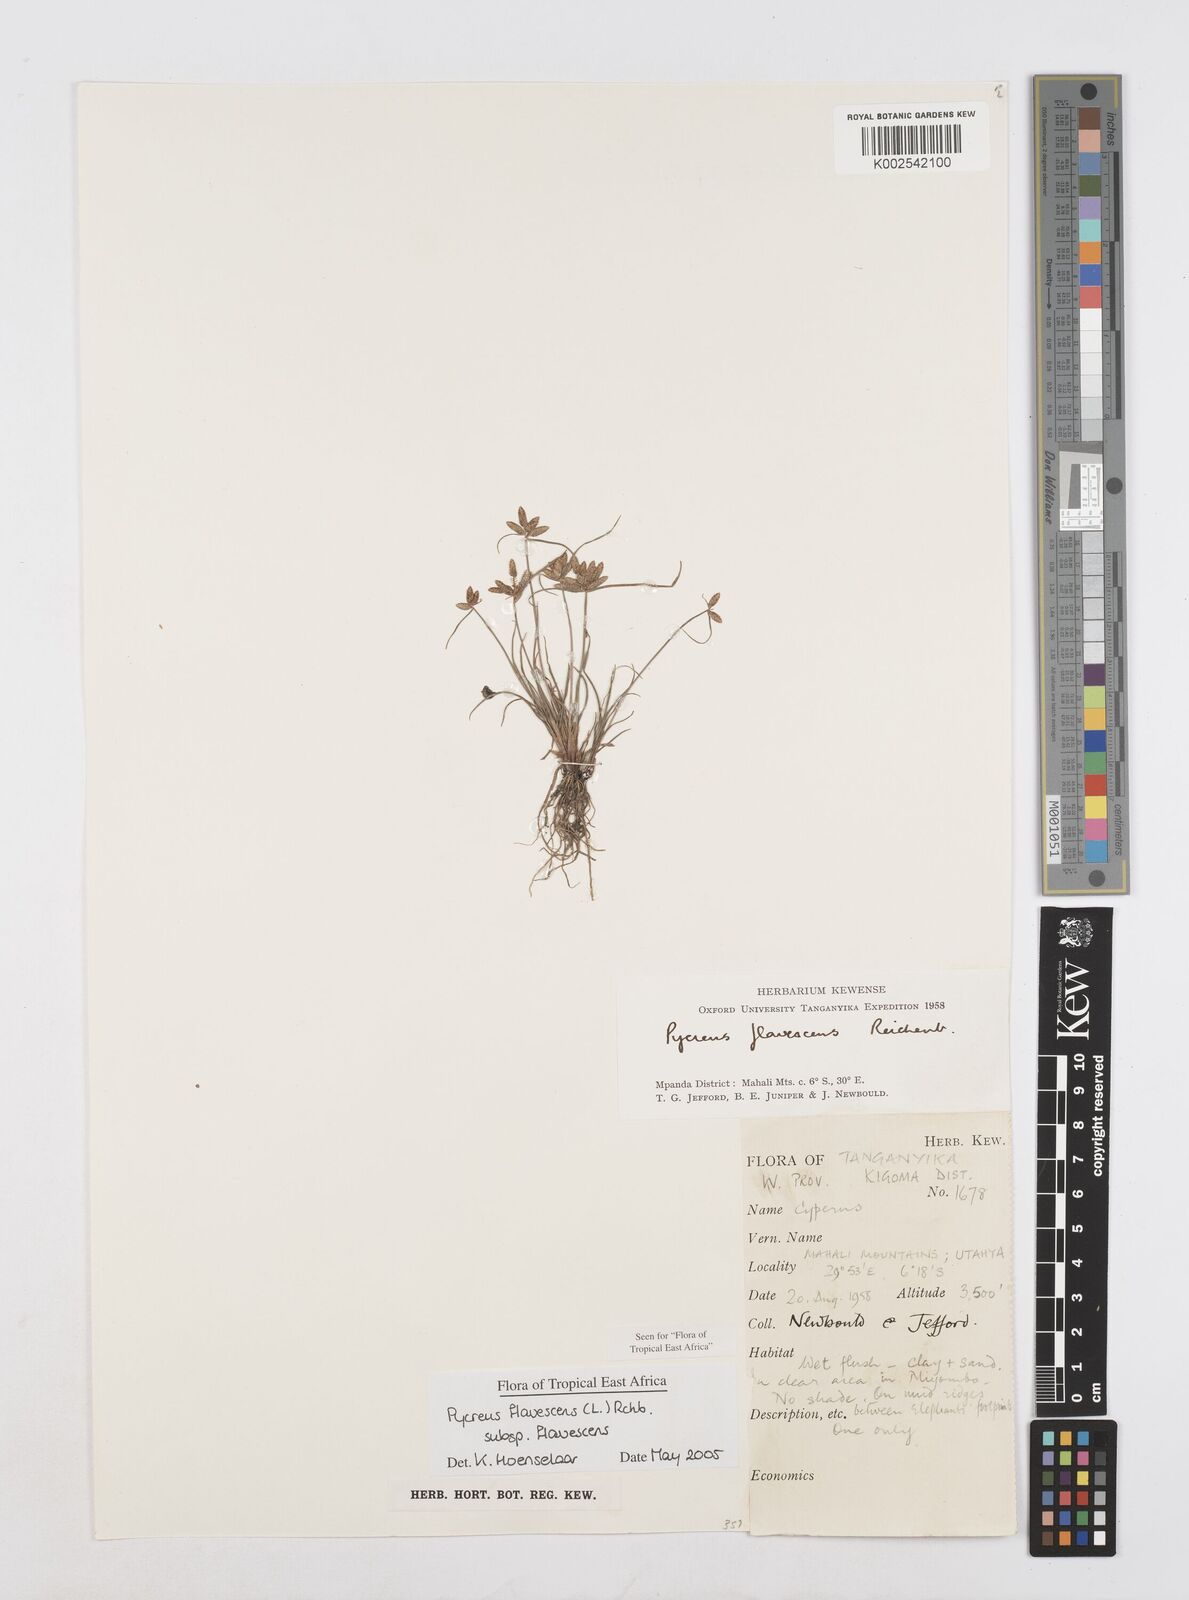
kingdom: Plantae
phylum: Tracheophyta
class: Liliopsida
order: Poales
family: Cyperaceae
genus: Cyperus
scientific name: Cyperus flavescens
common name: Yellow galingale
